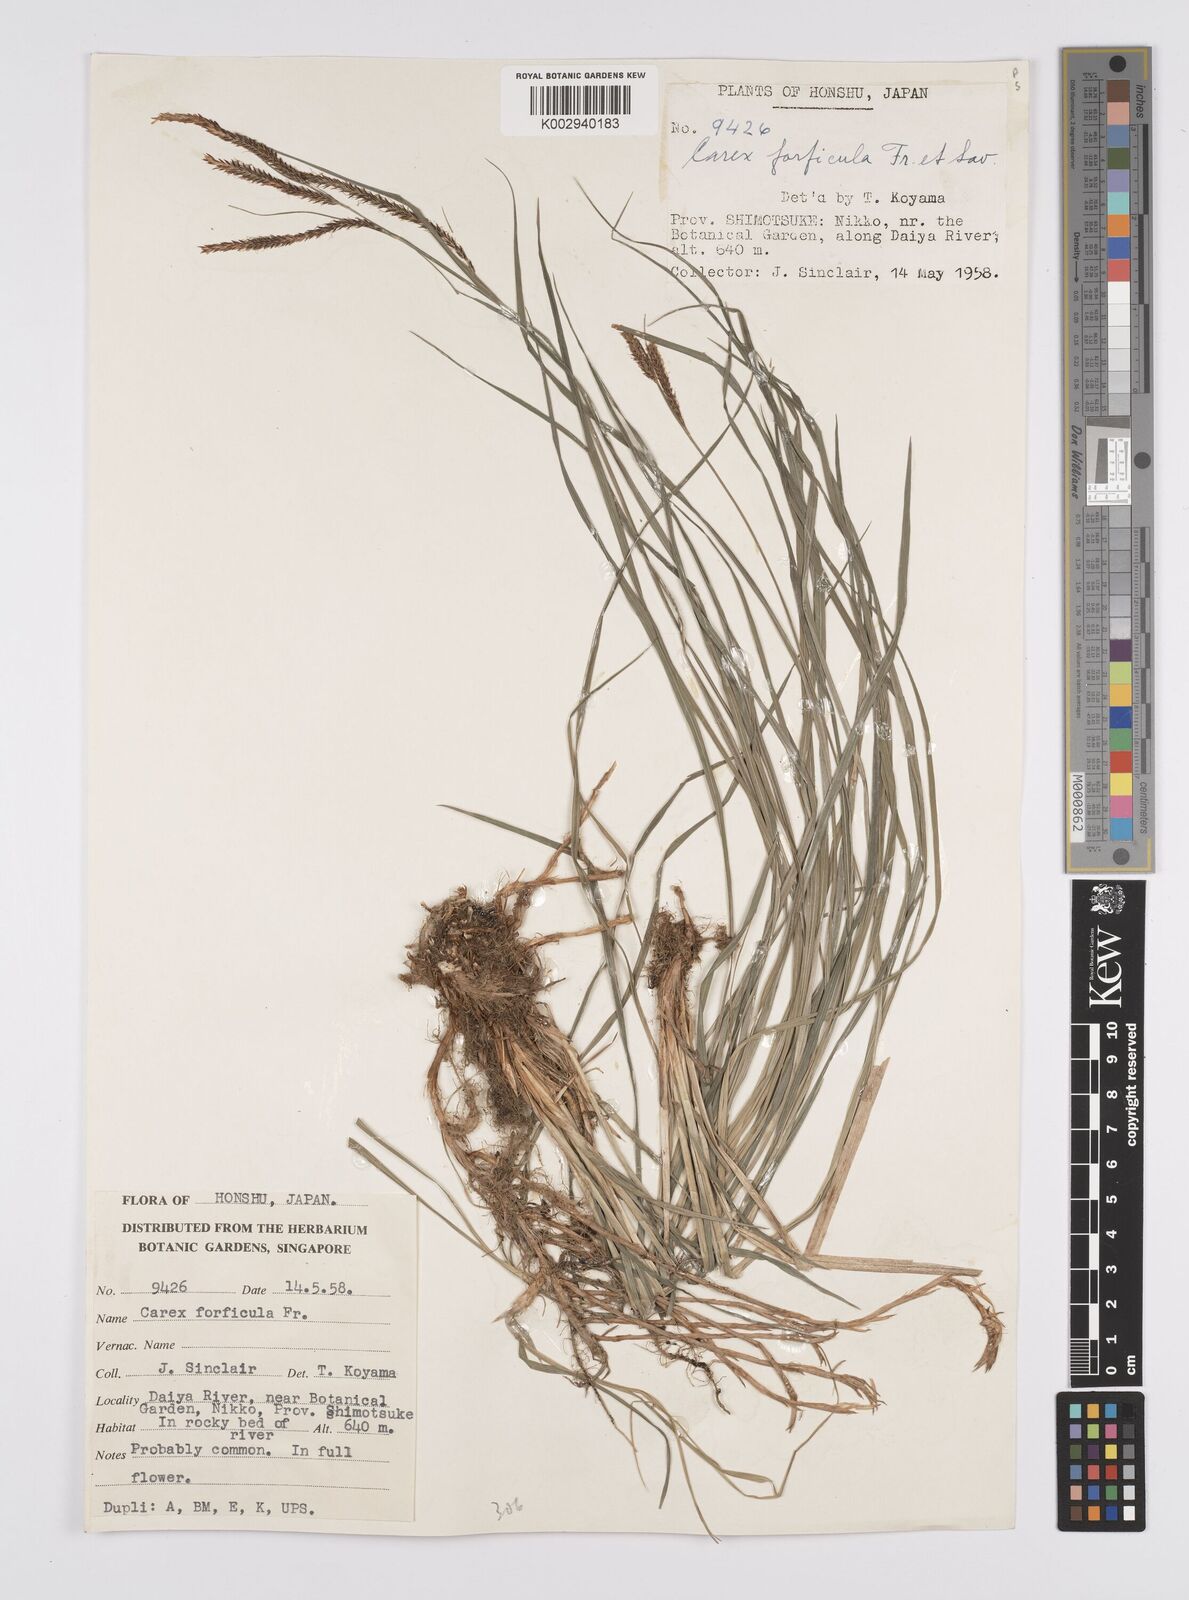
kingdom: Plantae
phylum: Tracheophyta
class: Liliopsida
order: Poales
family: Cyperaceae
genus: Carex
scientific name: Carex forficula
